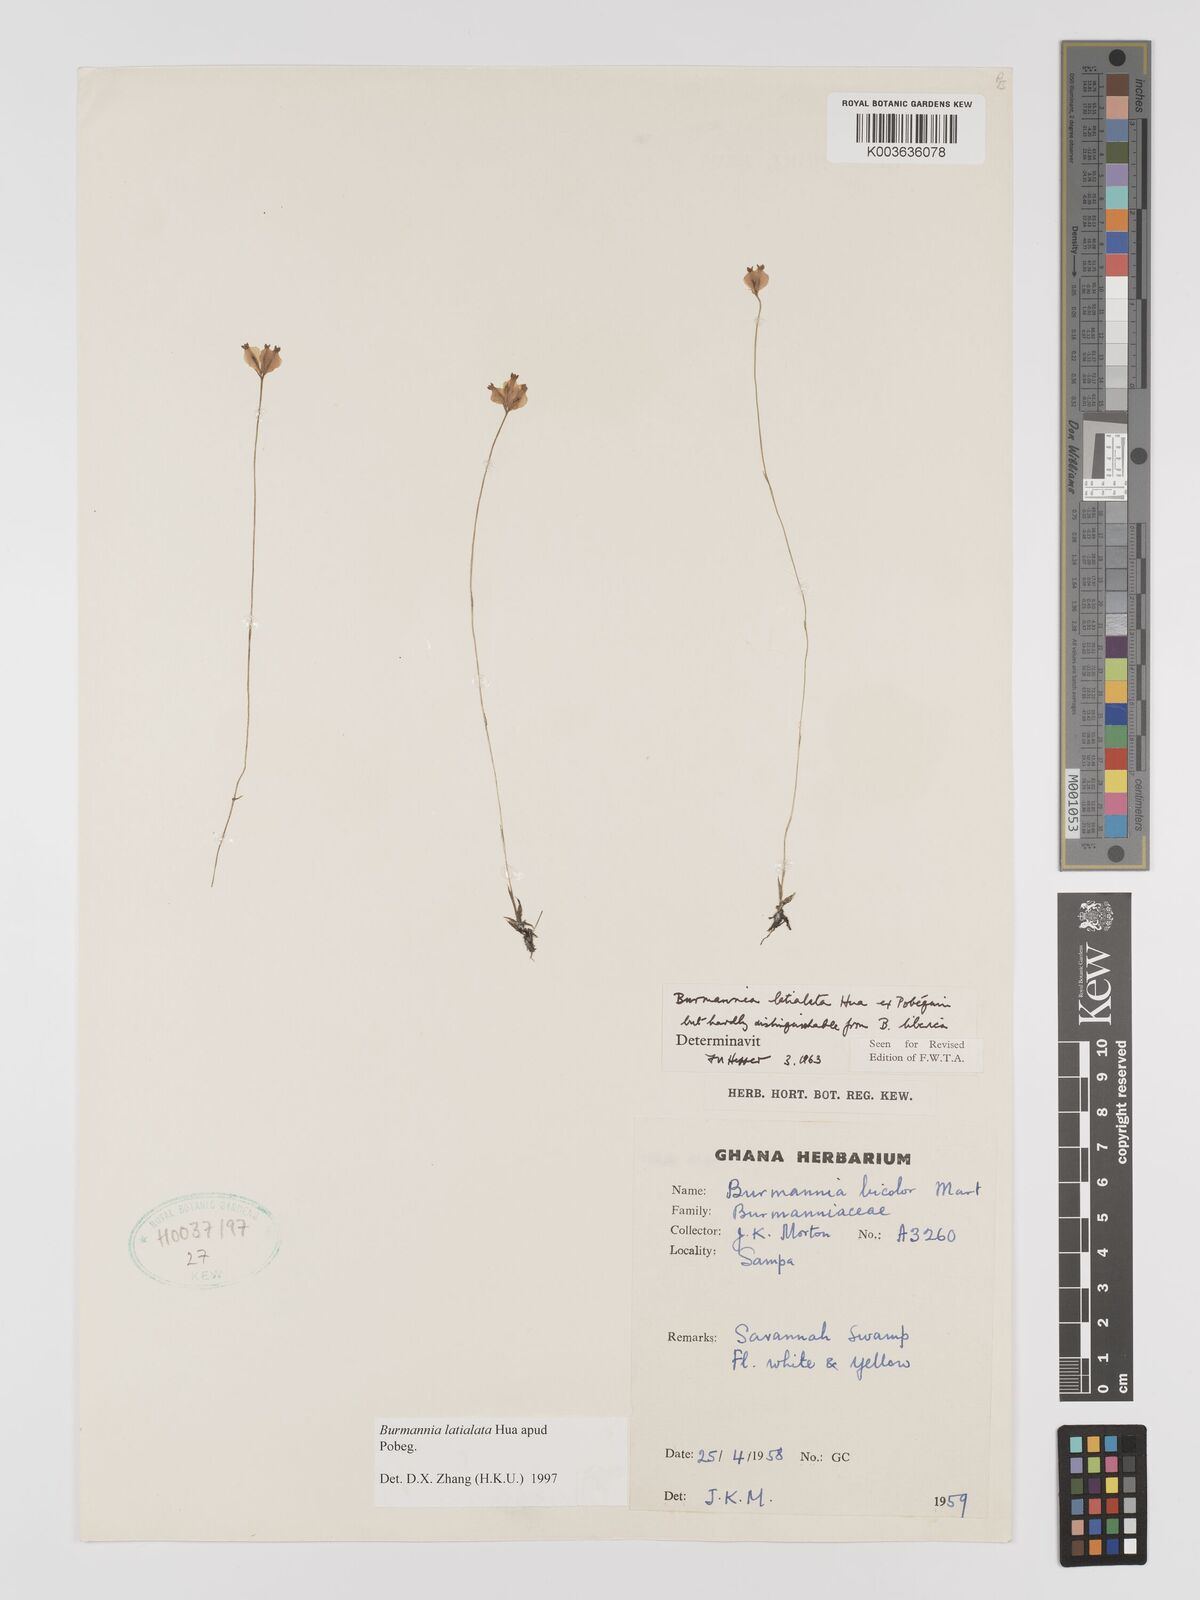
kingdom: Plantae
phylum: Tracheophyta
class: Liliopsida
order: Dioscoreales
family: Burmanniaceae
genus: Burmannia
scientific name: Burmannia madagascariensis
